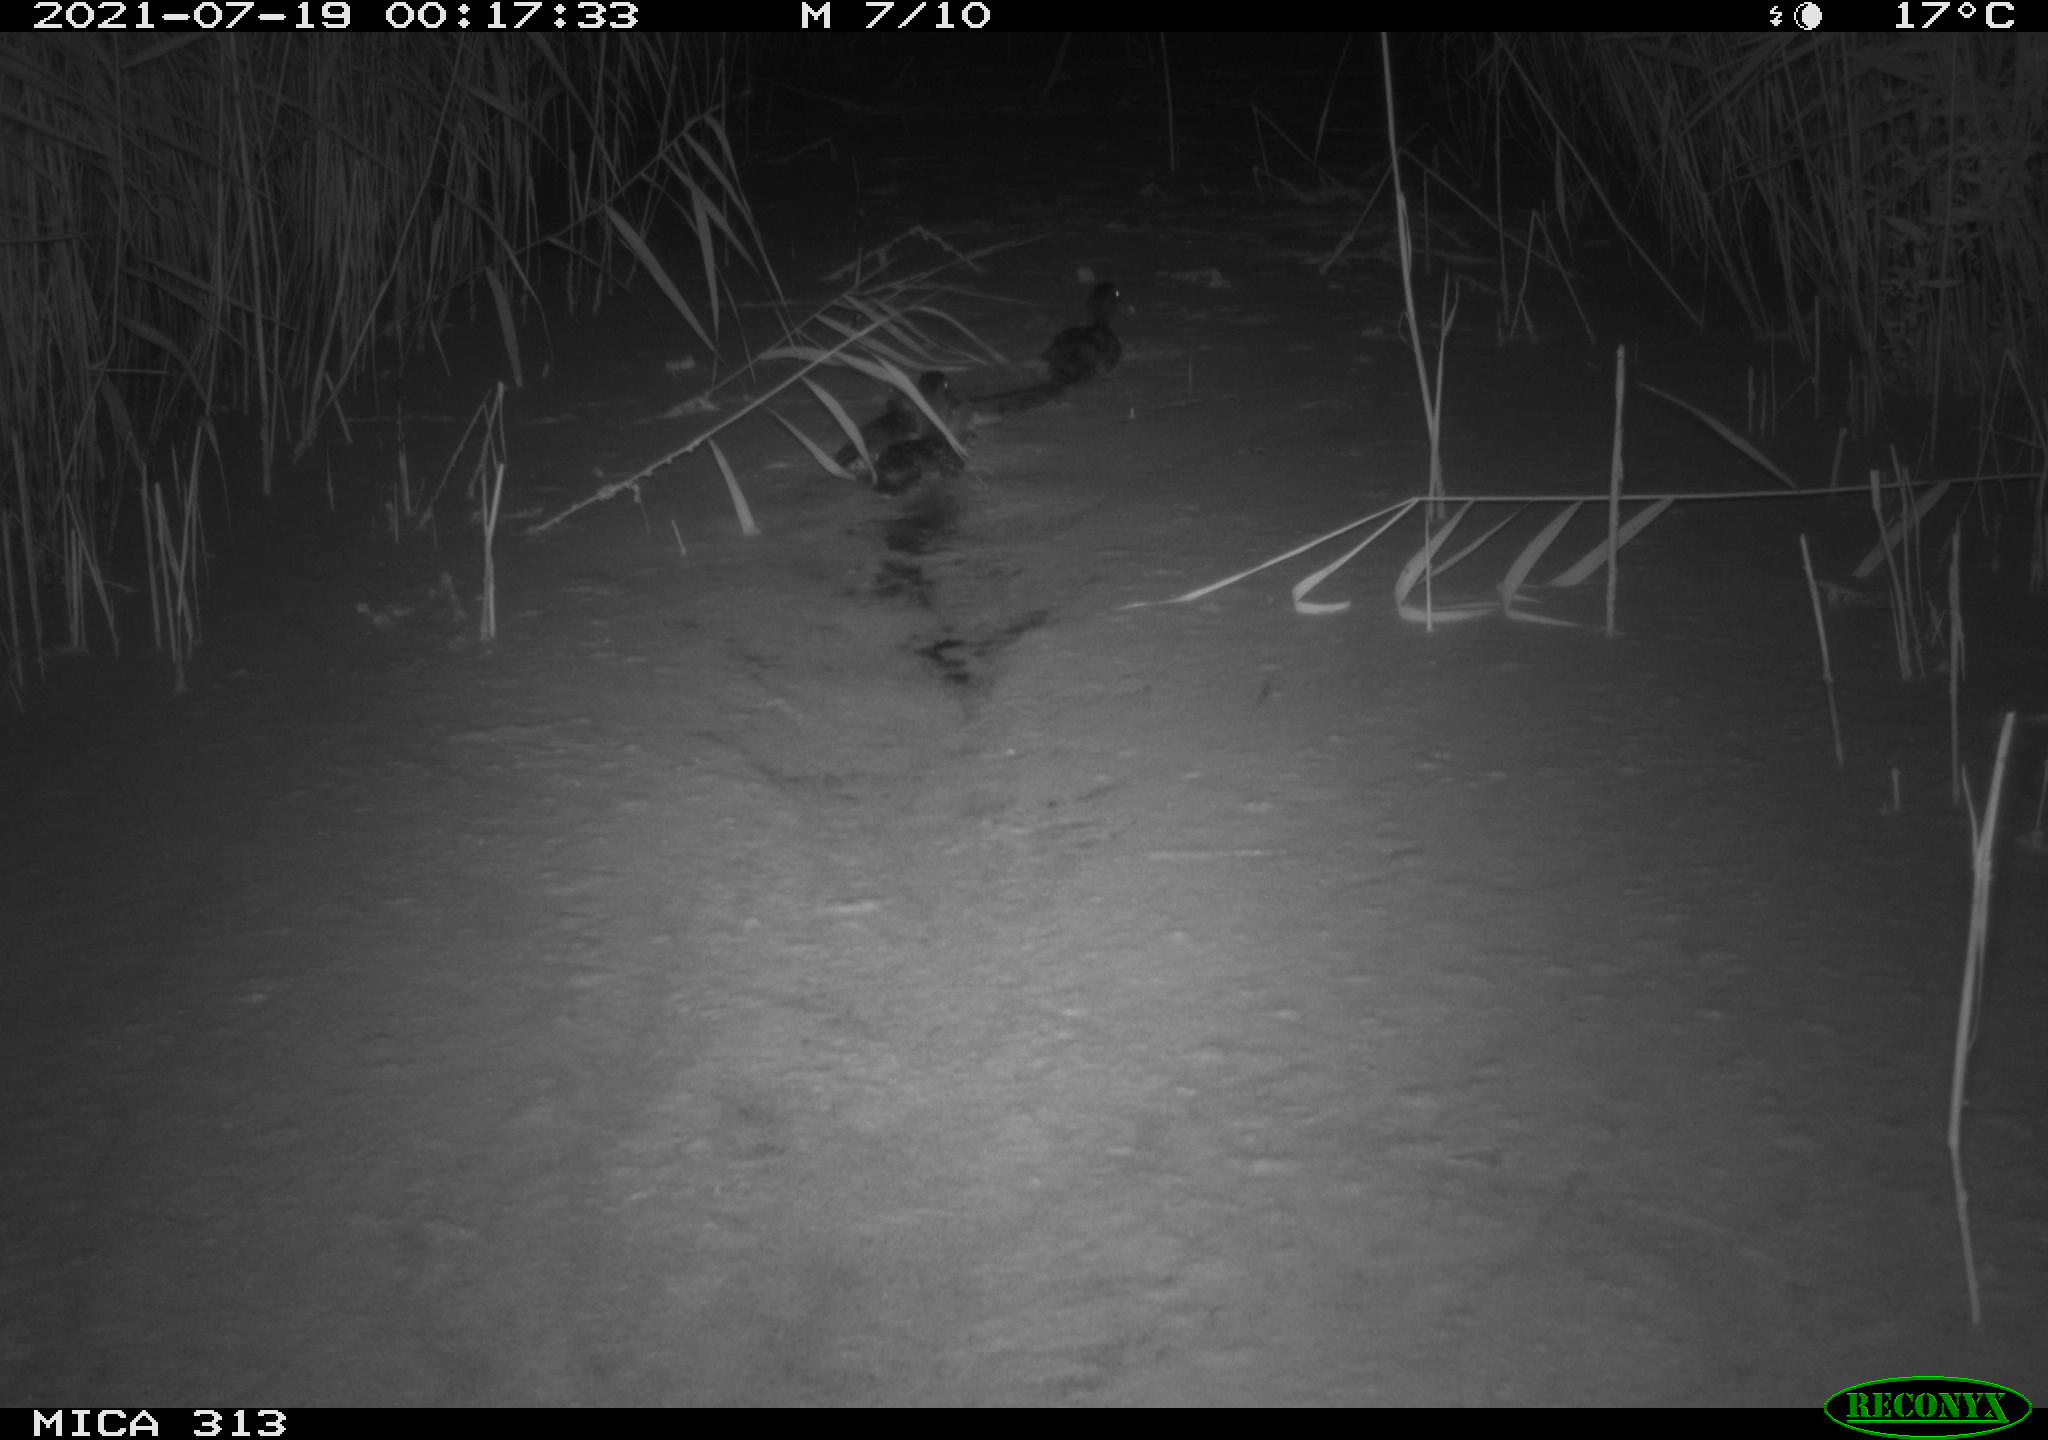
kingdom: Animalia
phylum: Chordata
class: Aves
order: Anseriformes
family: Anatidae
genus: Anas
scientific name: Anas platyrhynchos
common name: Mallard
